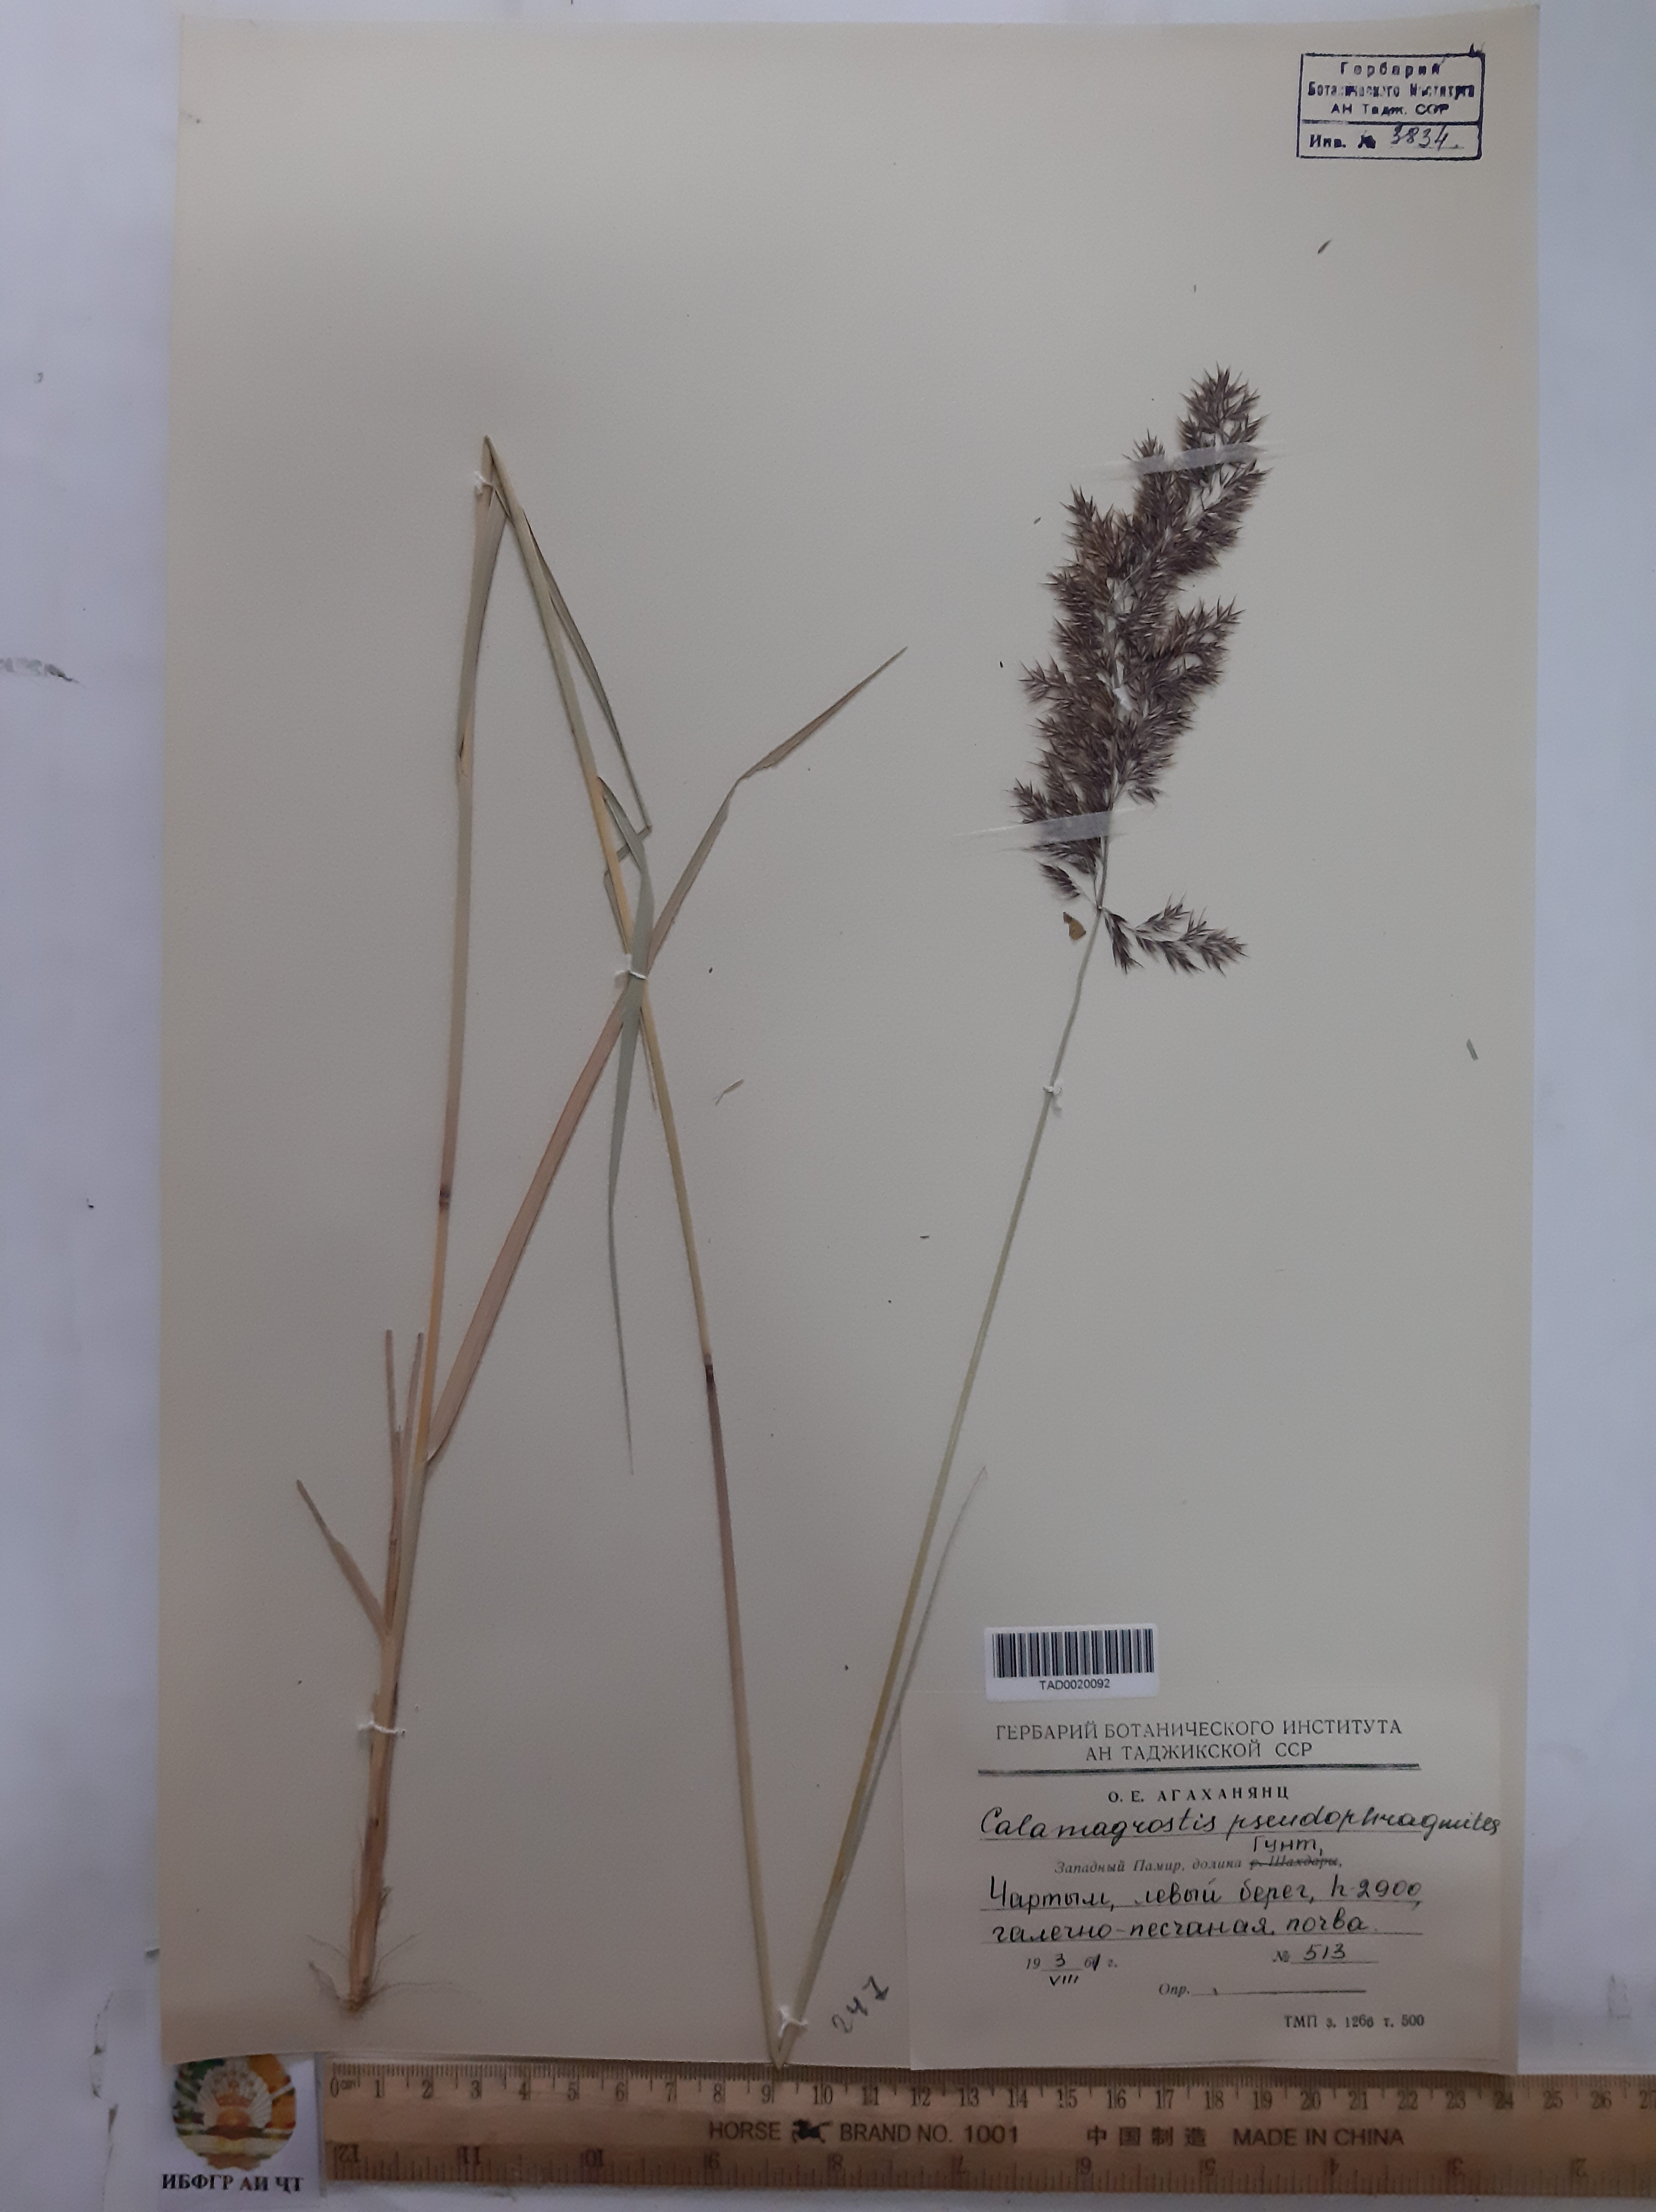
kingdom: Plantae
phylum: Tracheophyta
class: Liliopsida
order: Poales
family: Poaceae
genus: Calamagrostis
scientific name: Calamagrostis pseudophragmites
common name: Coastal small-reed
